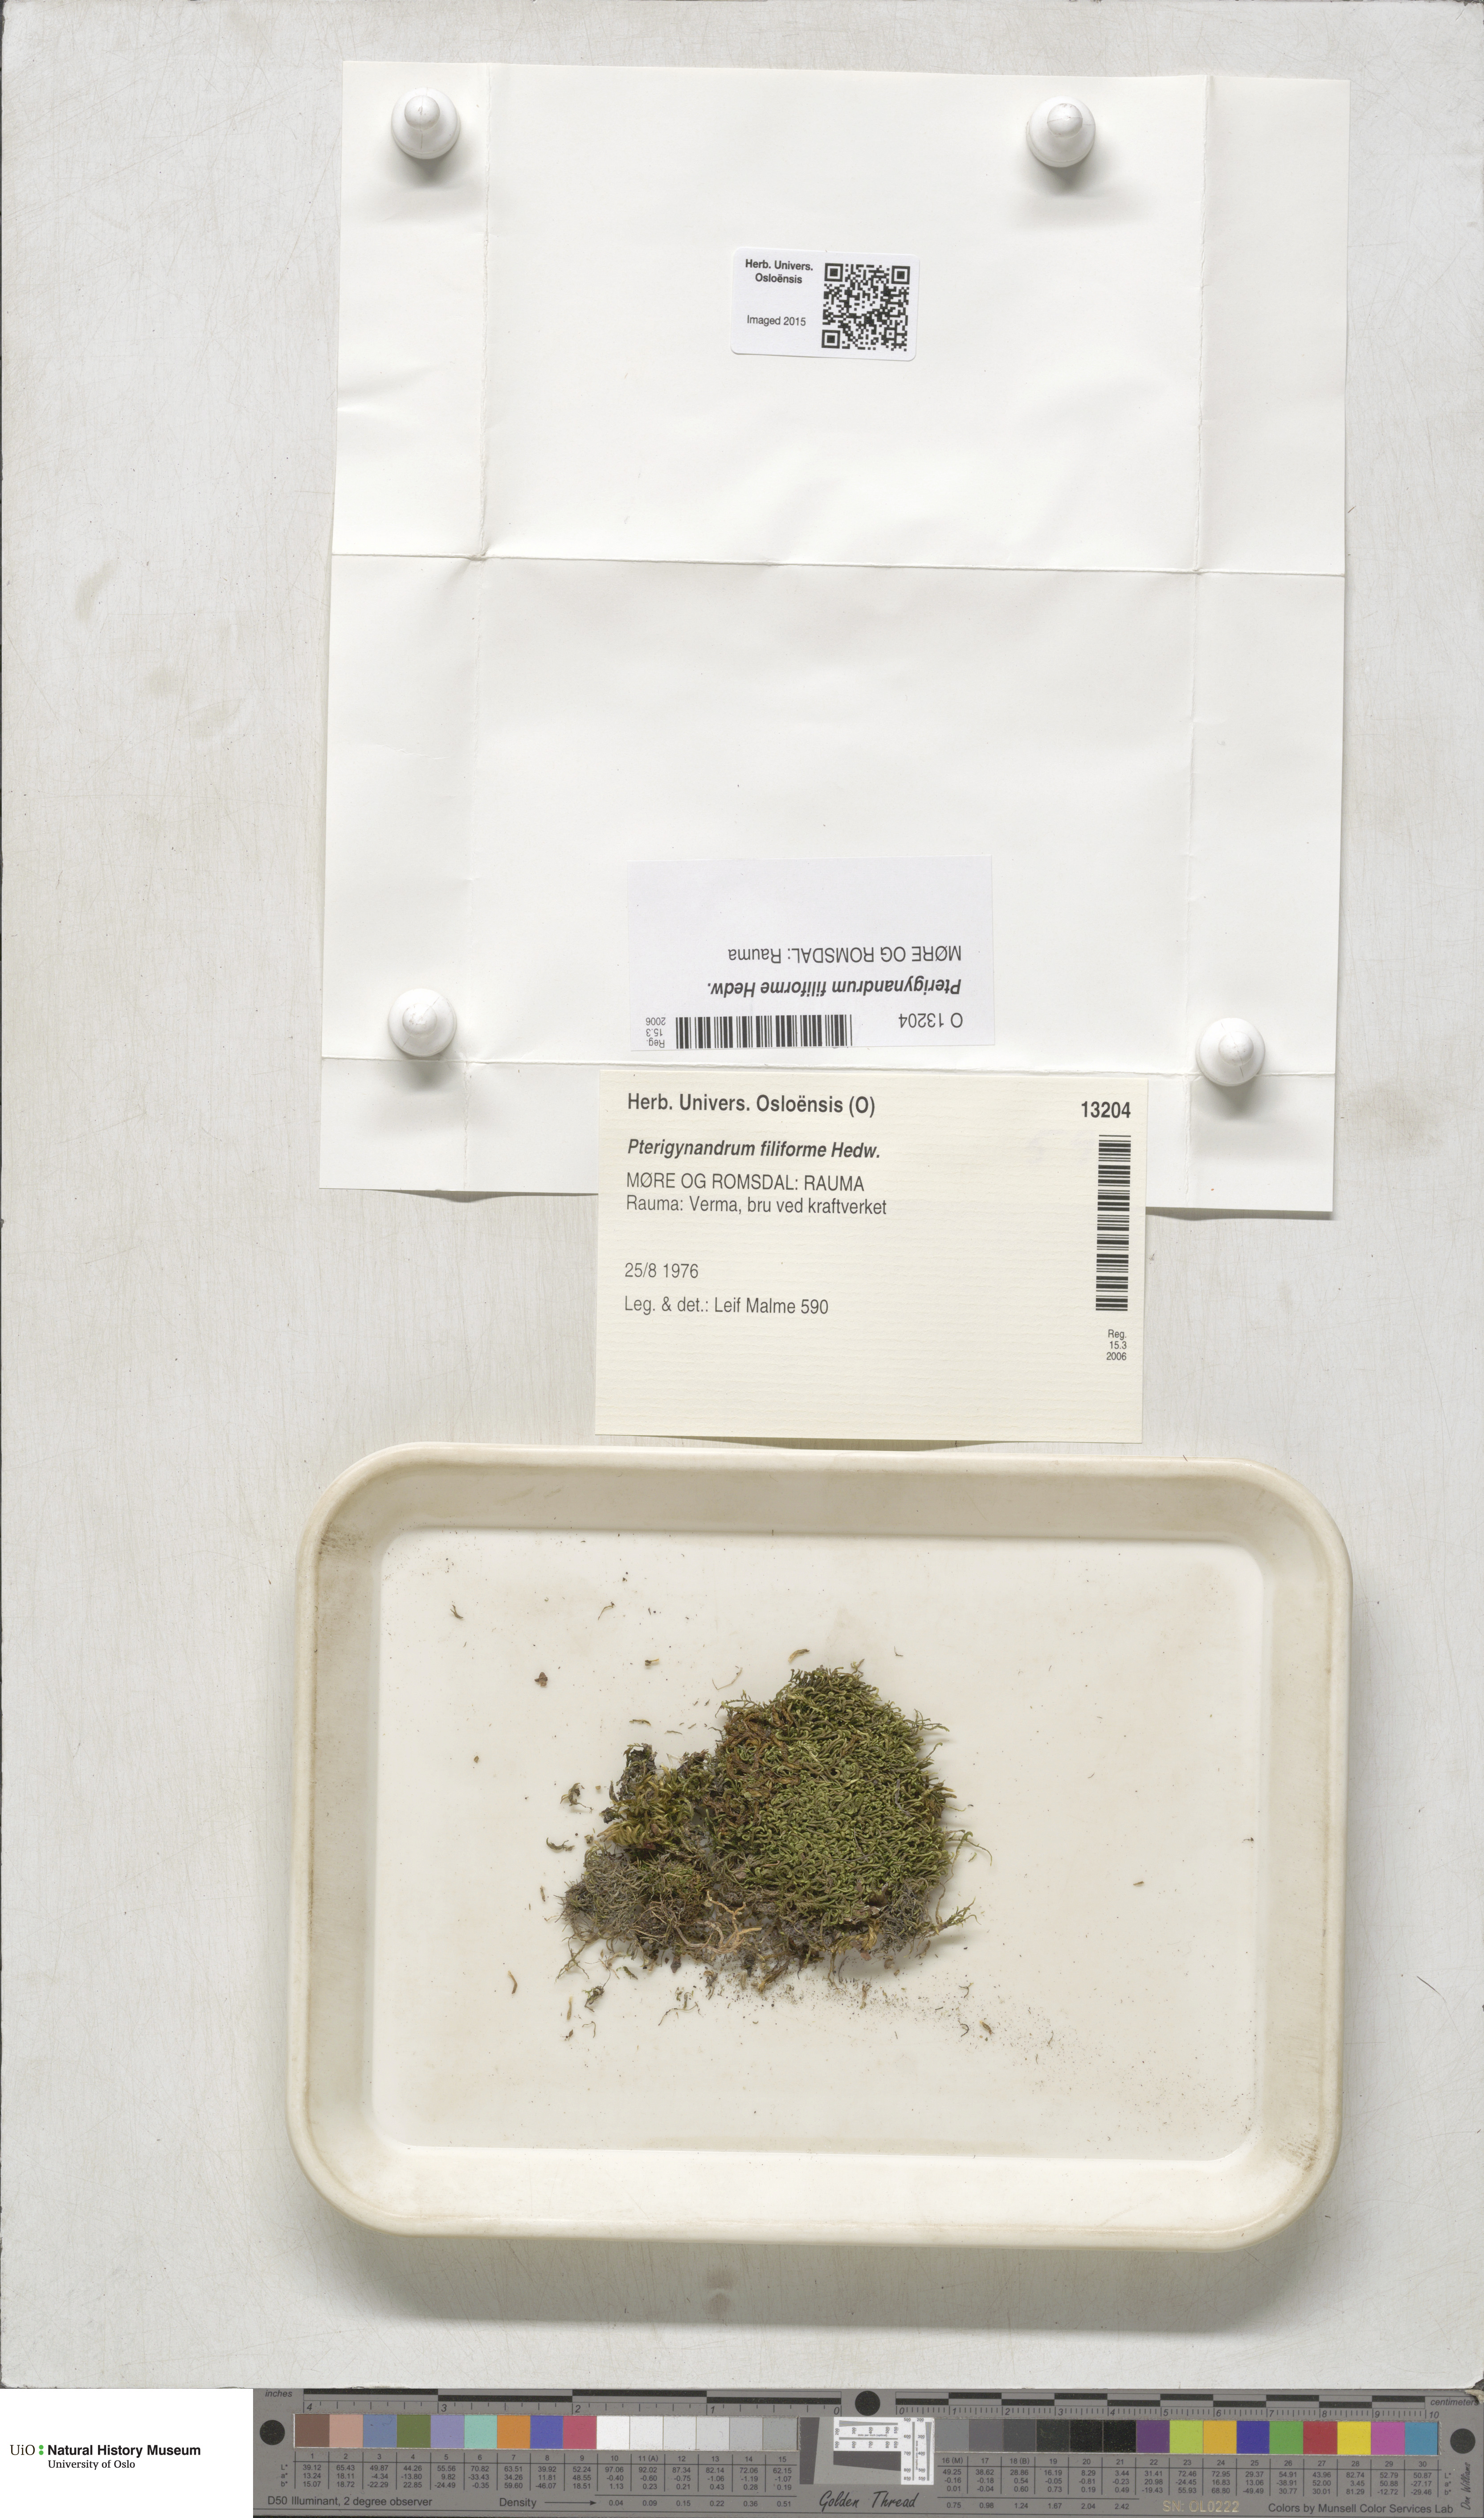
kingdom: Plantae
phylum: Bryophyta
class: Bryopsida
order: Hypnales
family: Pterigynandraceae
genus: Pterigynandrum
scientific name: Pterigynandrum filiforme
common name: Capillary wing moss
